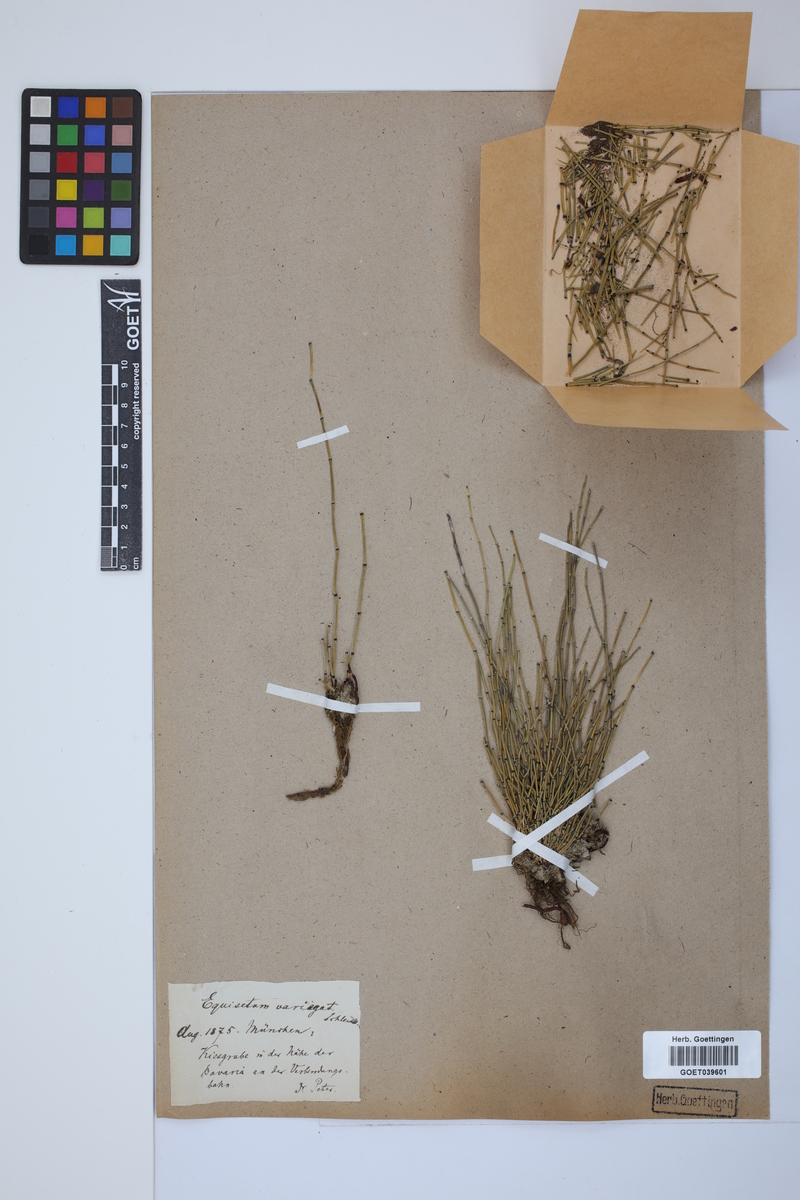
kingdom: Plantae
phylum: Tracheophyta
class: Polypodiopsida
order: Equisetales
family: Equisetaceae
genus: Equisetum
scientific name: Equisetum variegatum
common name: Variegated horsetail
